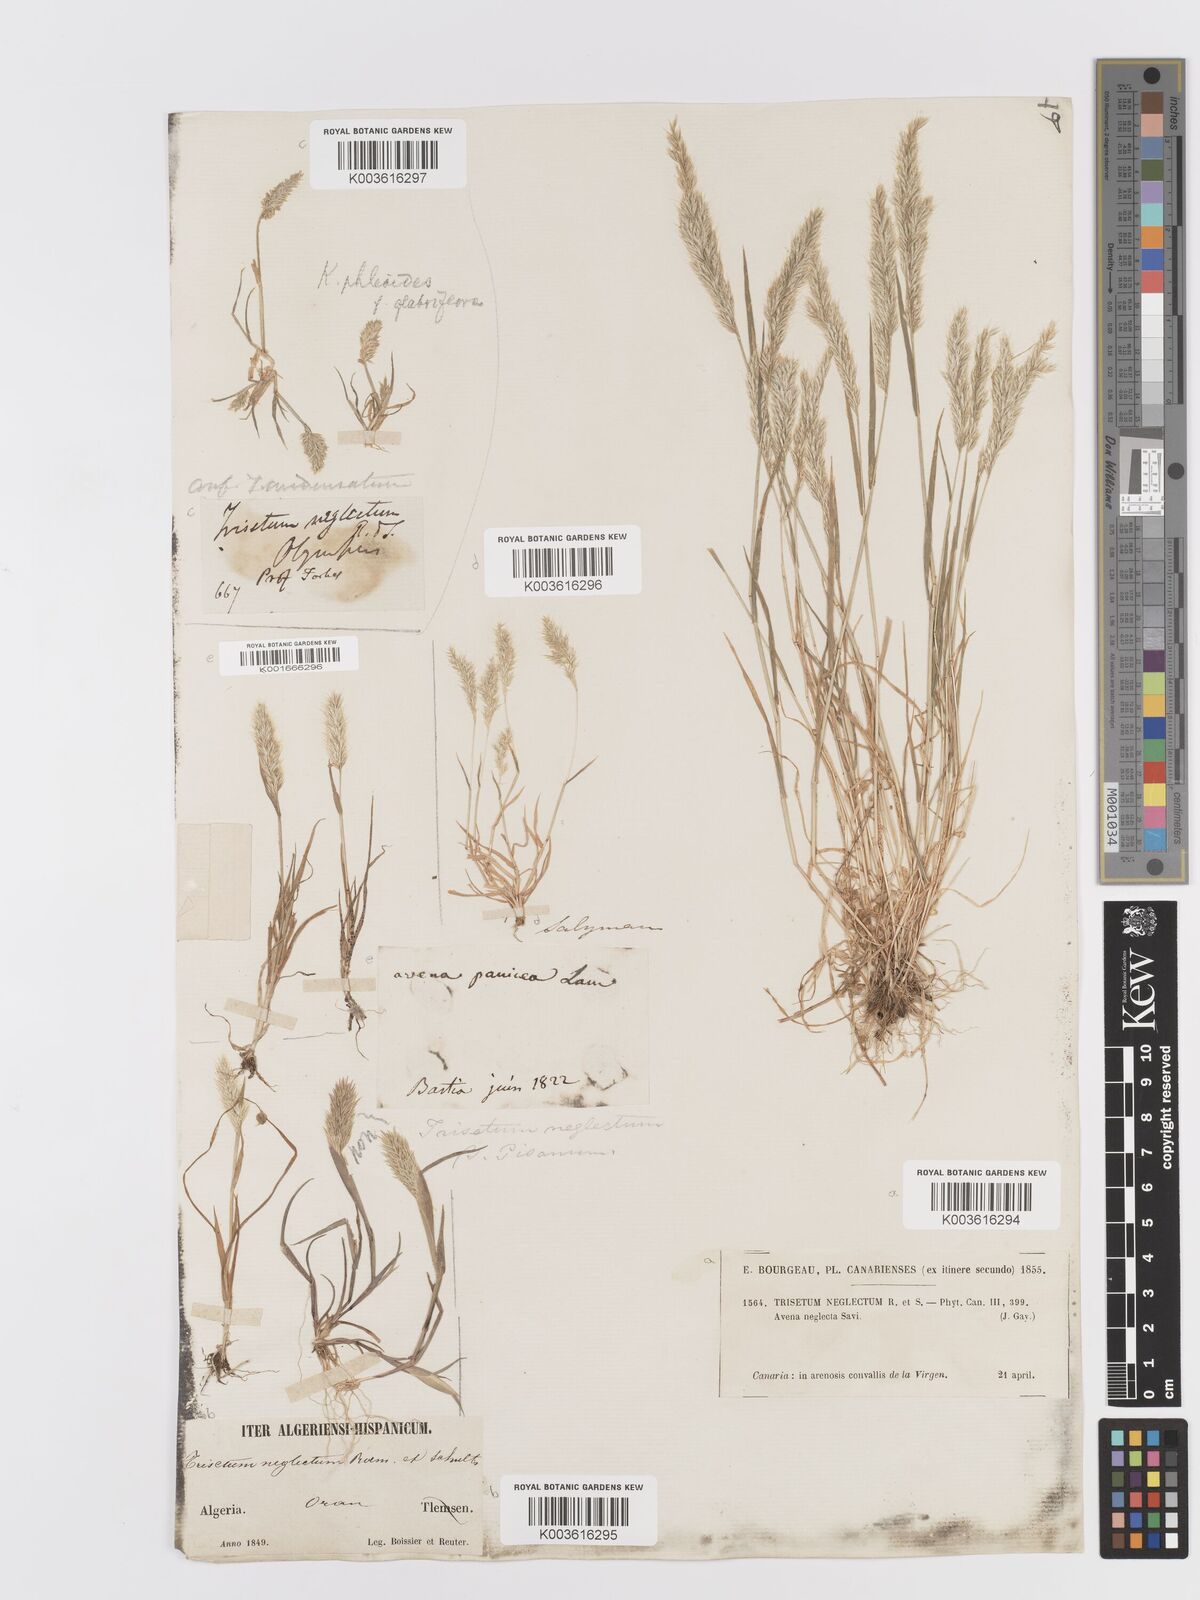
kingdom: Plantae
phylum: Tracheophyta
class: Liliopsida
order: Poales
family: Poaceae
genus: Trisetaria
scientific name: Trisetaria panicea
